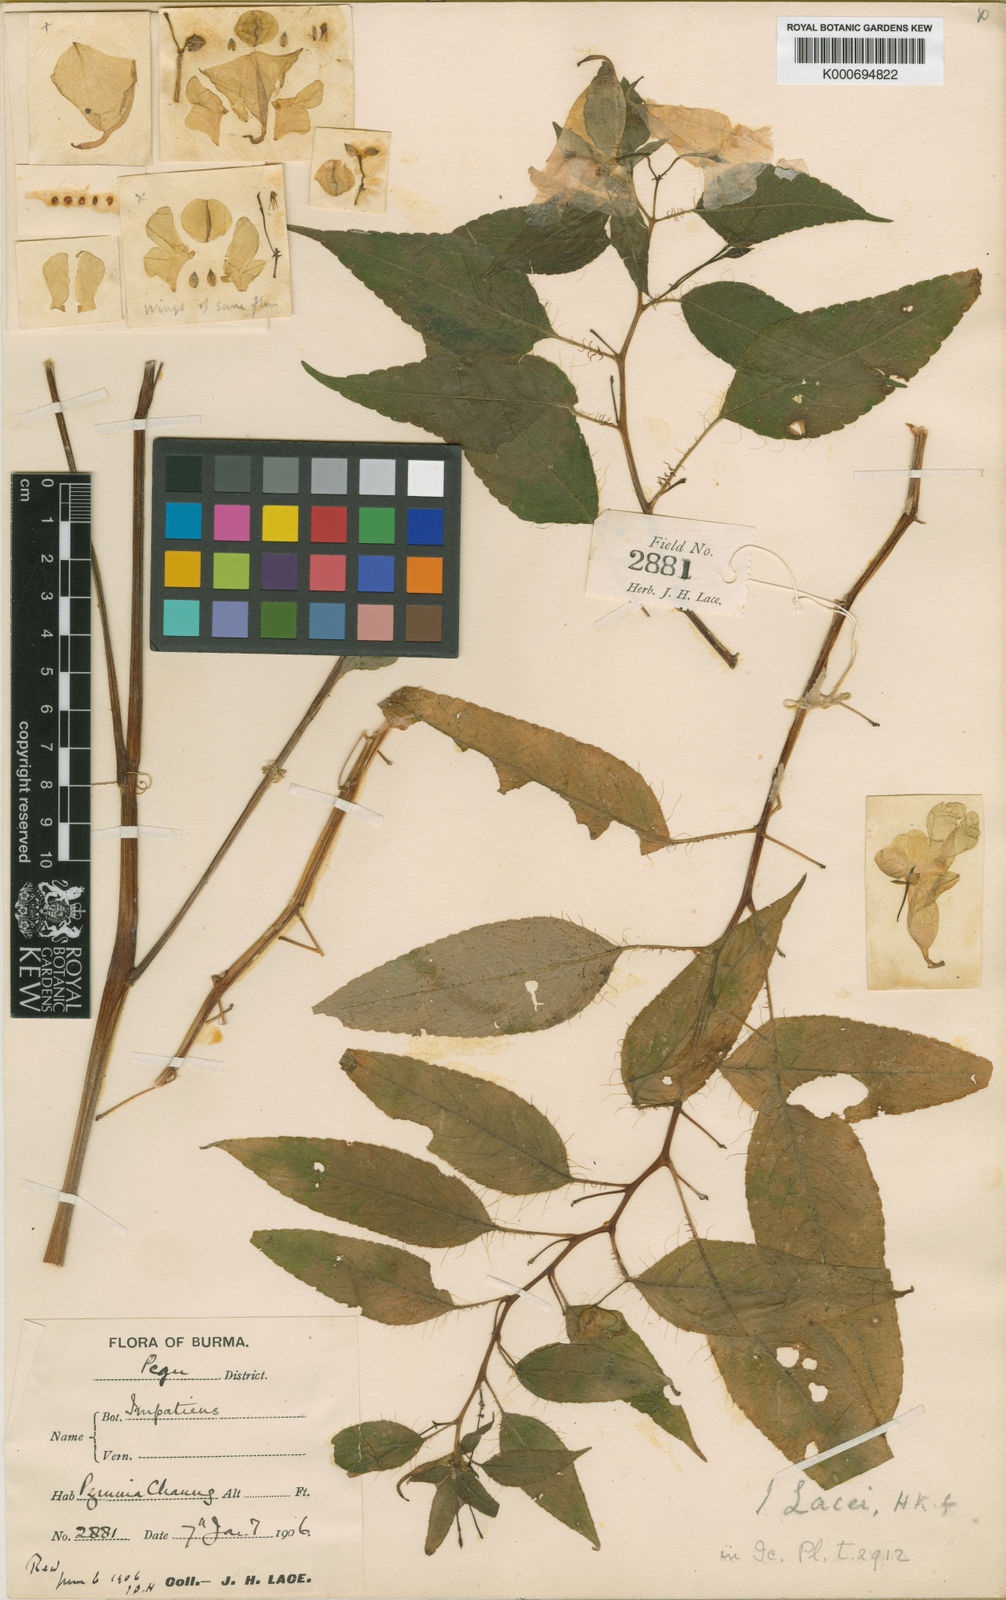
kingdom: Plantae
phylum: Tracheophyta
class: Magnoliopsida
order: Ericales
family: Balsaminaceae
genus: Impatiens
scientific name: Impatiens lacei
